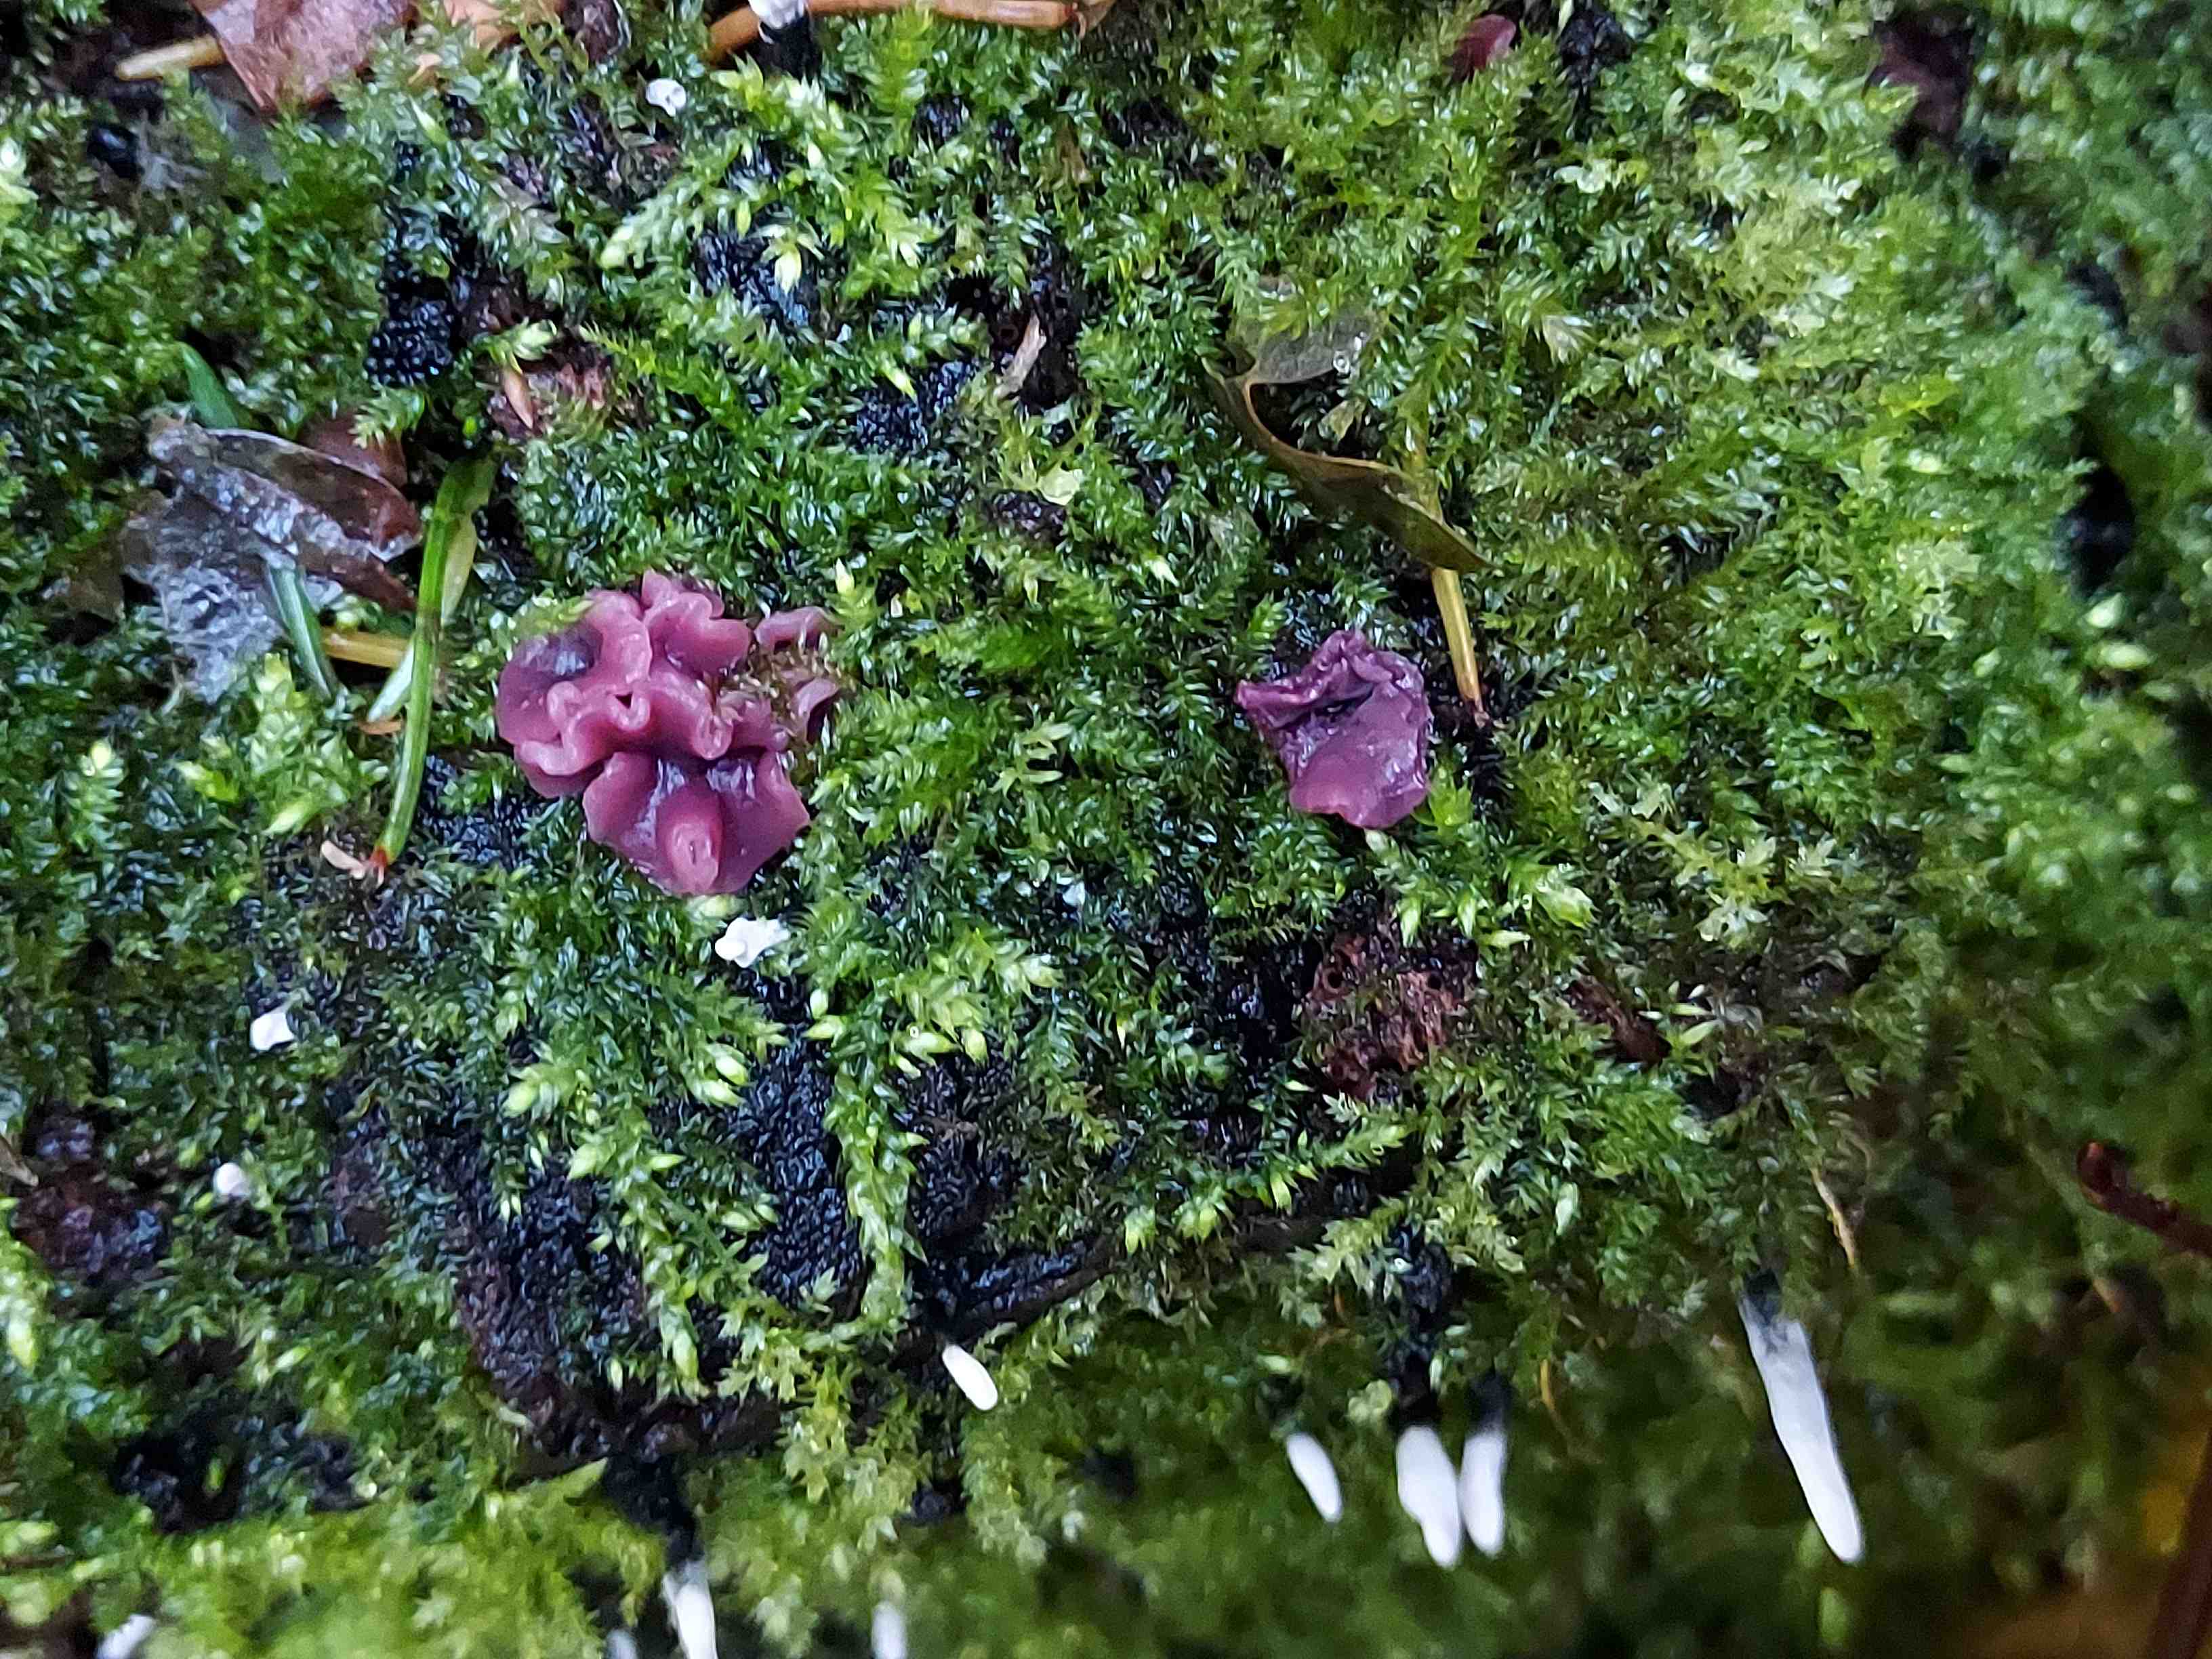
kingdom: Fungi
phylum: Ascomycota
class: Leotiomycetes
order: Helotiales
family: Gelatinodiscaceae
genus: Ascocoryne
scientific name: Ascocoryne cylichnium
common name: stor sejskive
